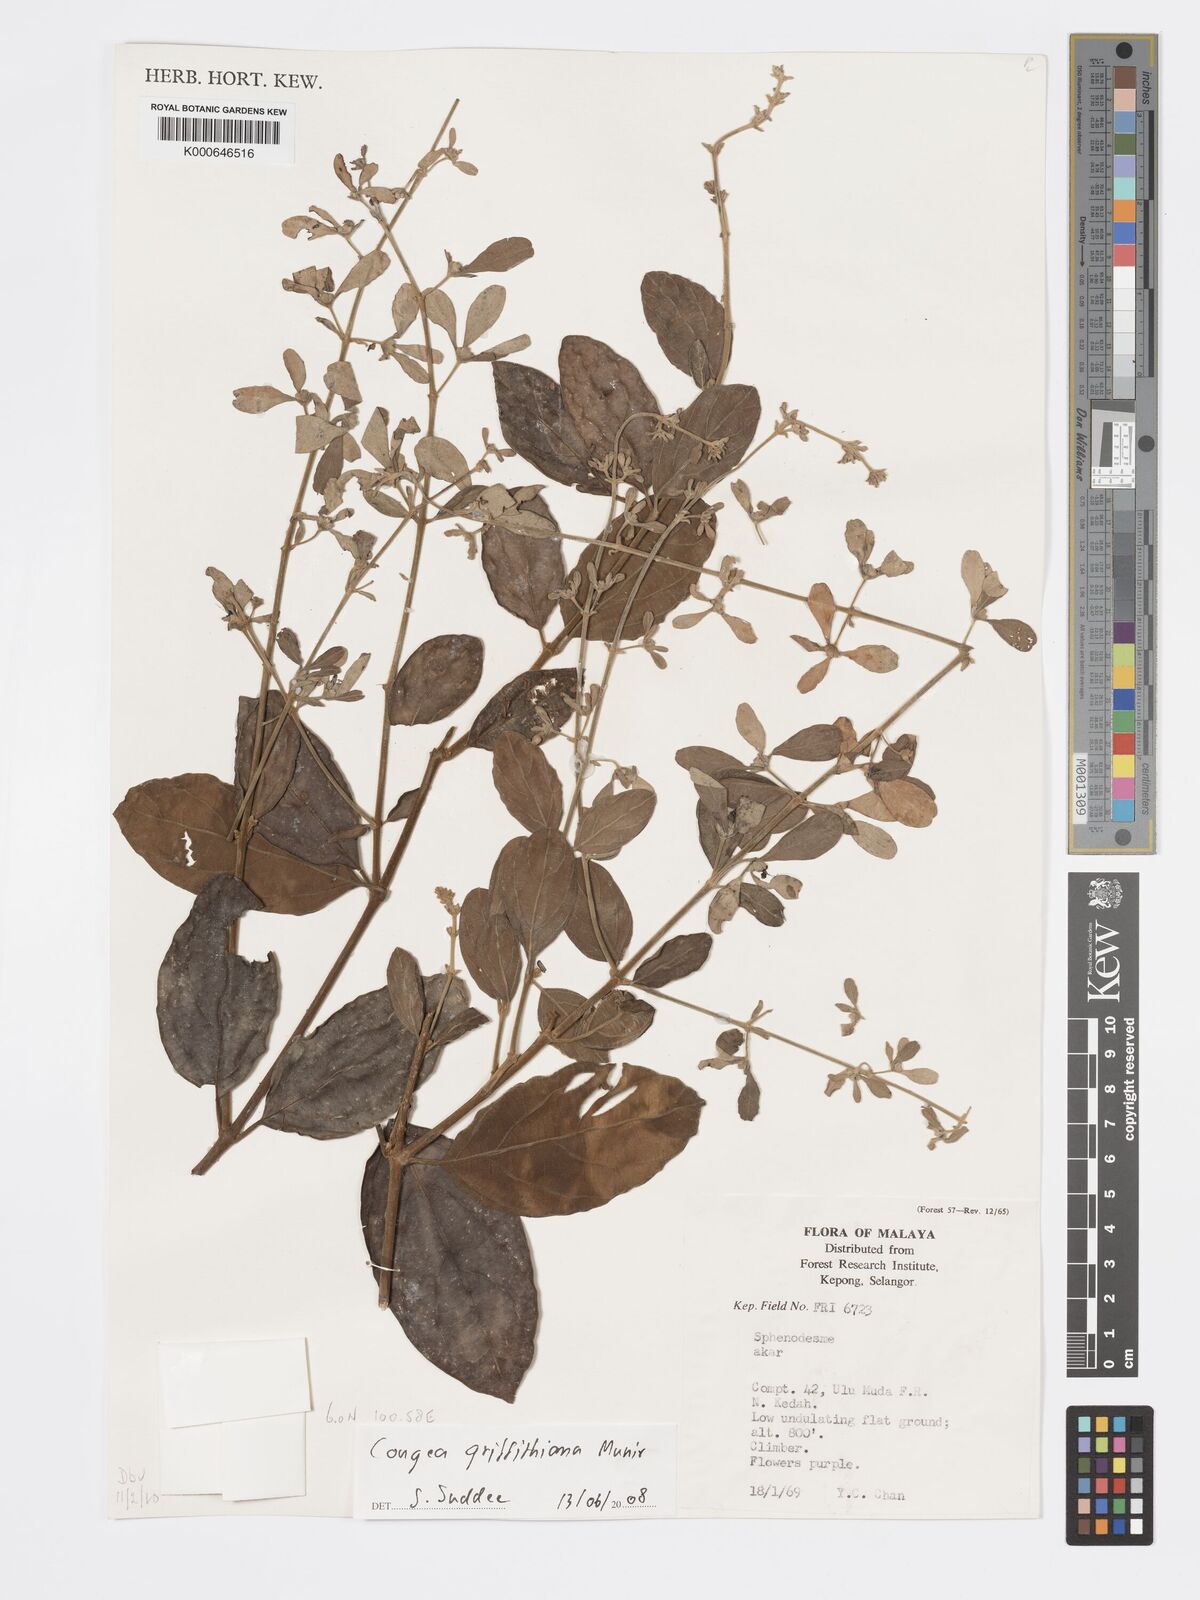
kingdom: Plantae
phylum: Tracheophyta
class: Magnoliopsida
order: Lamiales
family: Lamiaceae
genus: Congea
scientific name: Congea griffithiana
